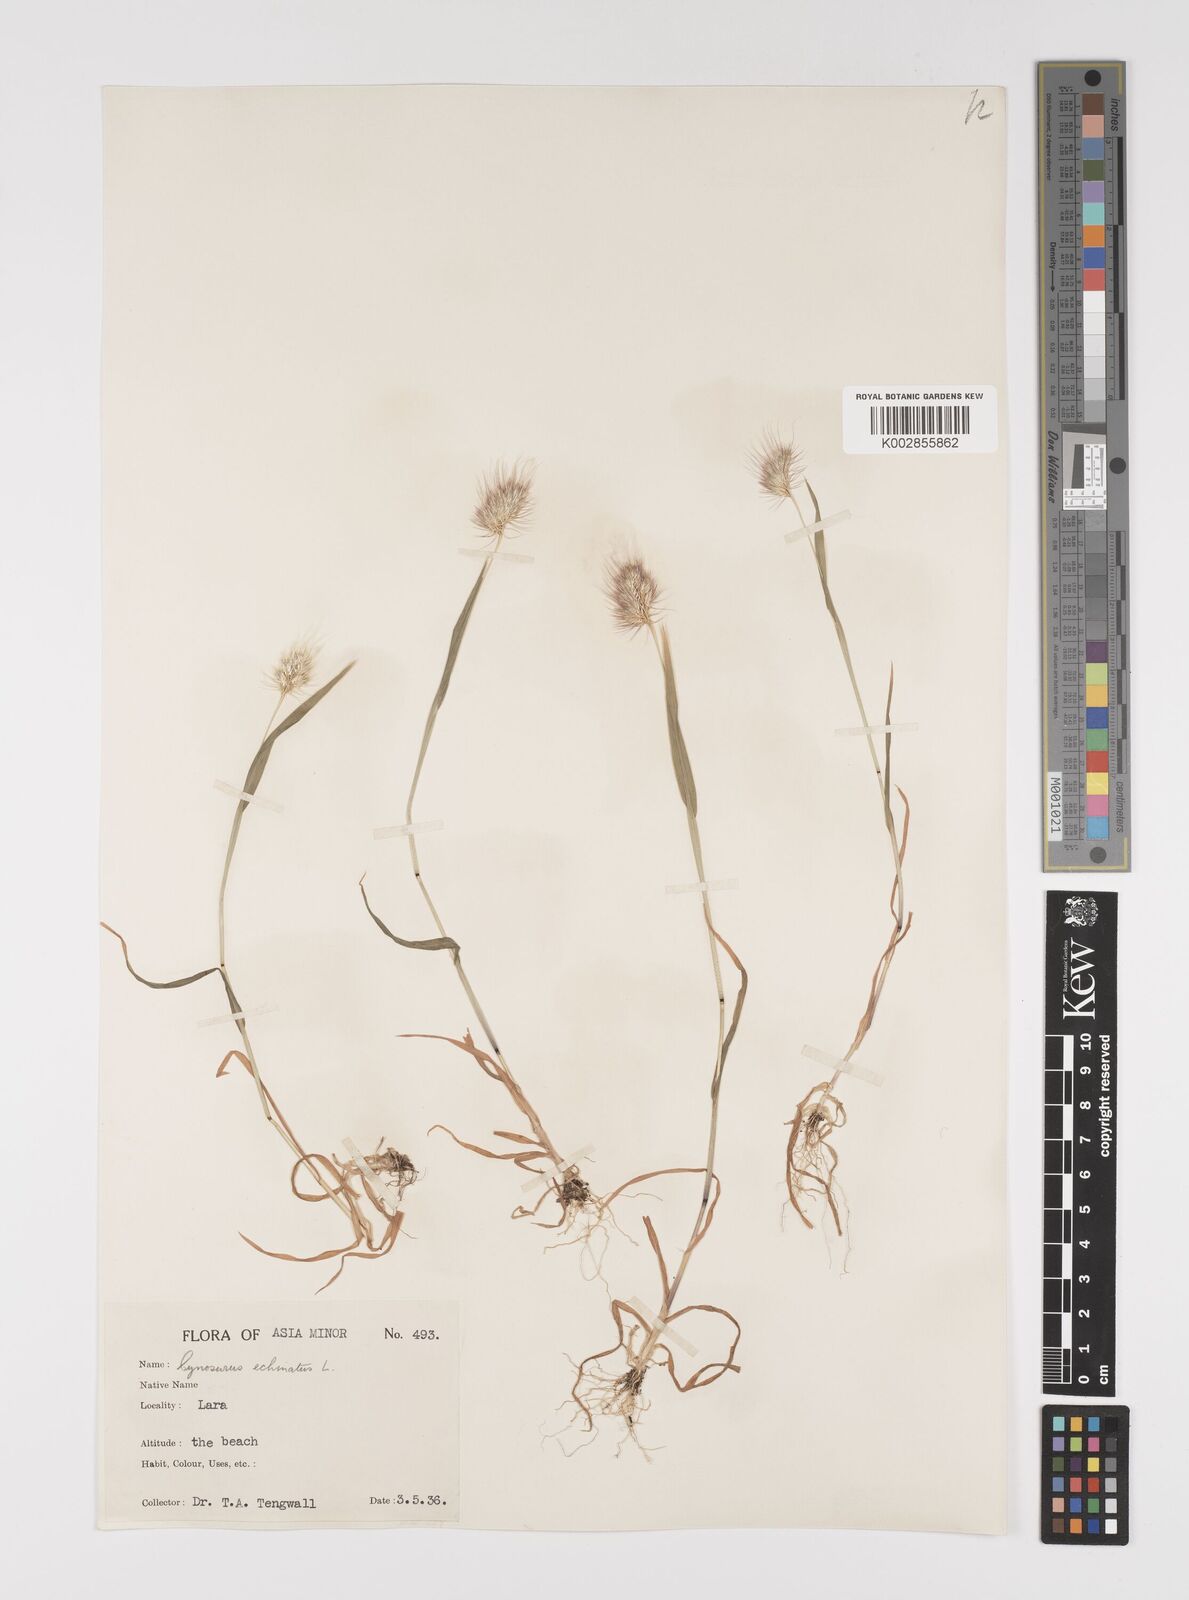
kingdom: Plantae
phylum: Tracheophyta
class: Liliopsida
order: Poales
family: Poaceae
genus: Cynosurus
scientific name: Cynosurus echinatus
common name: Rough dog's-tail
